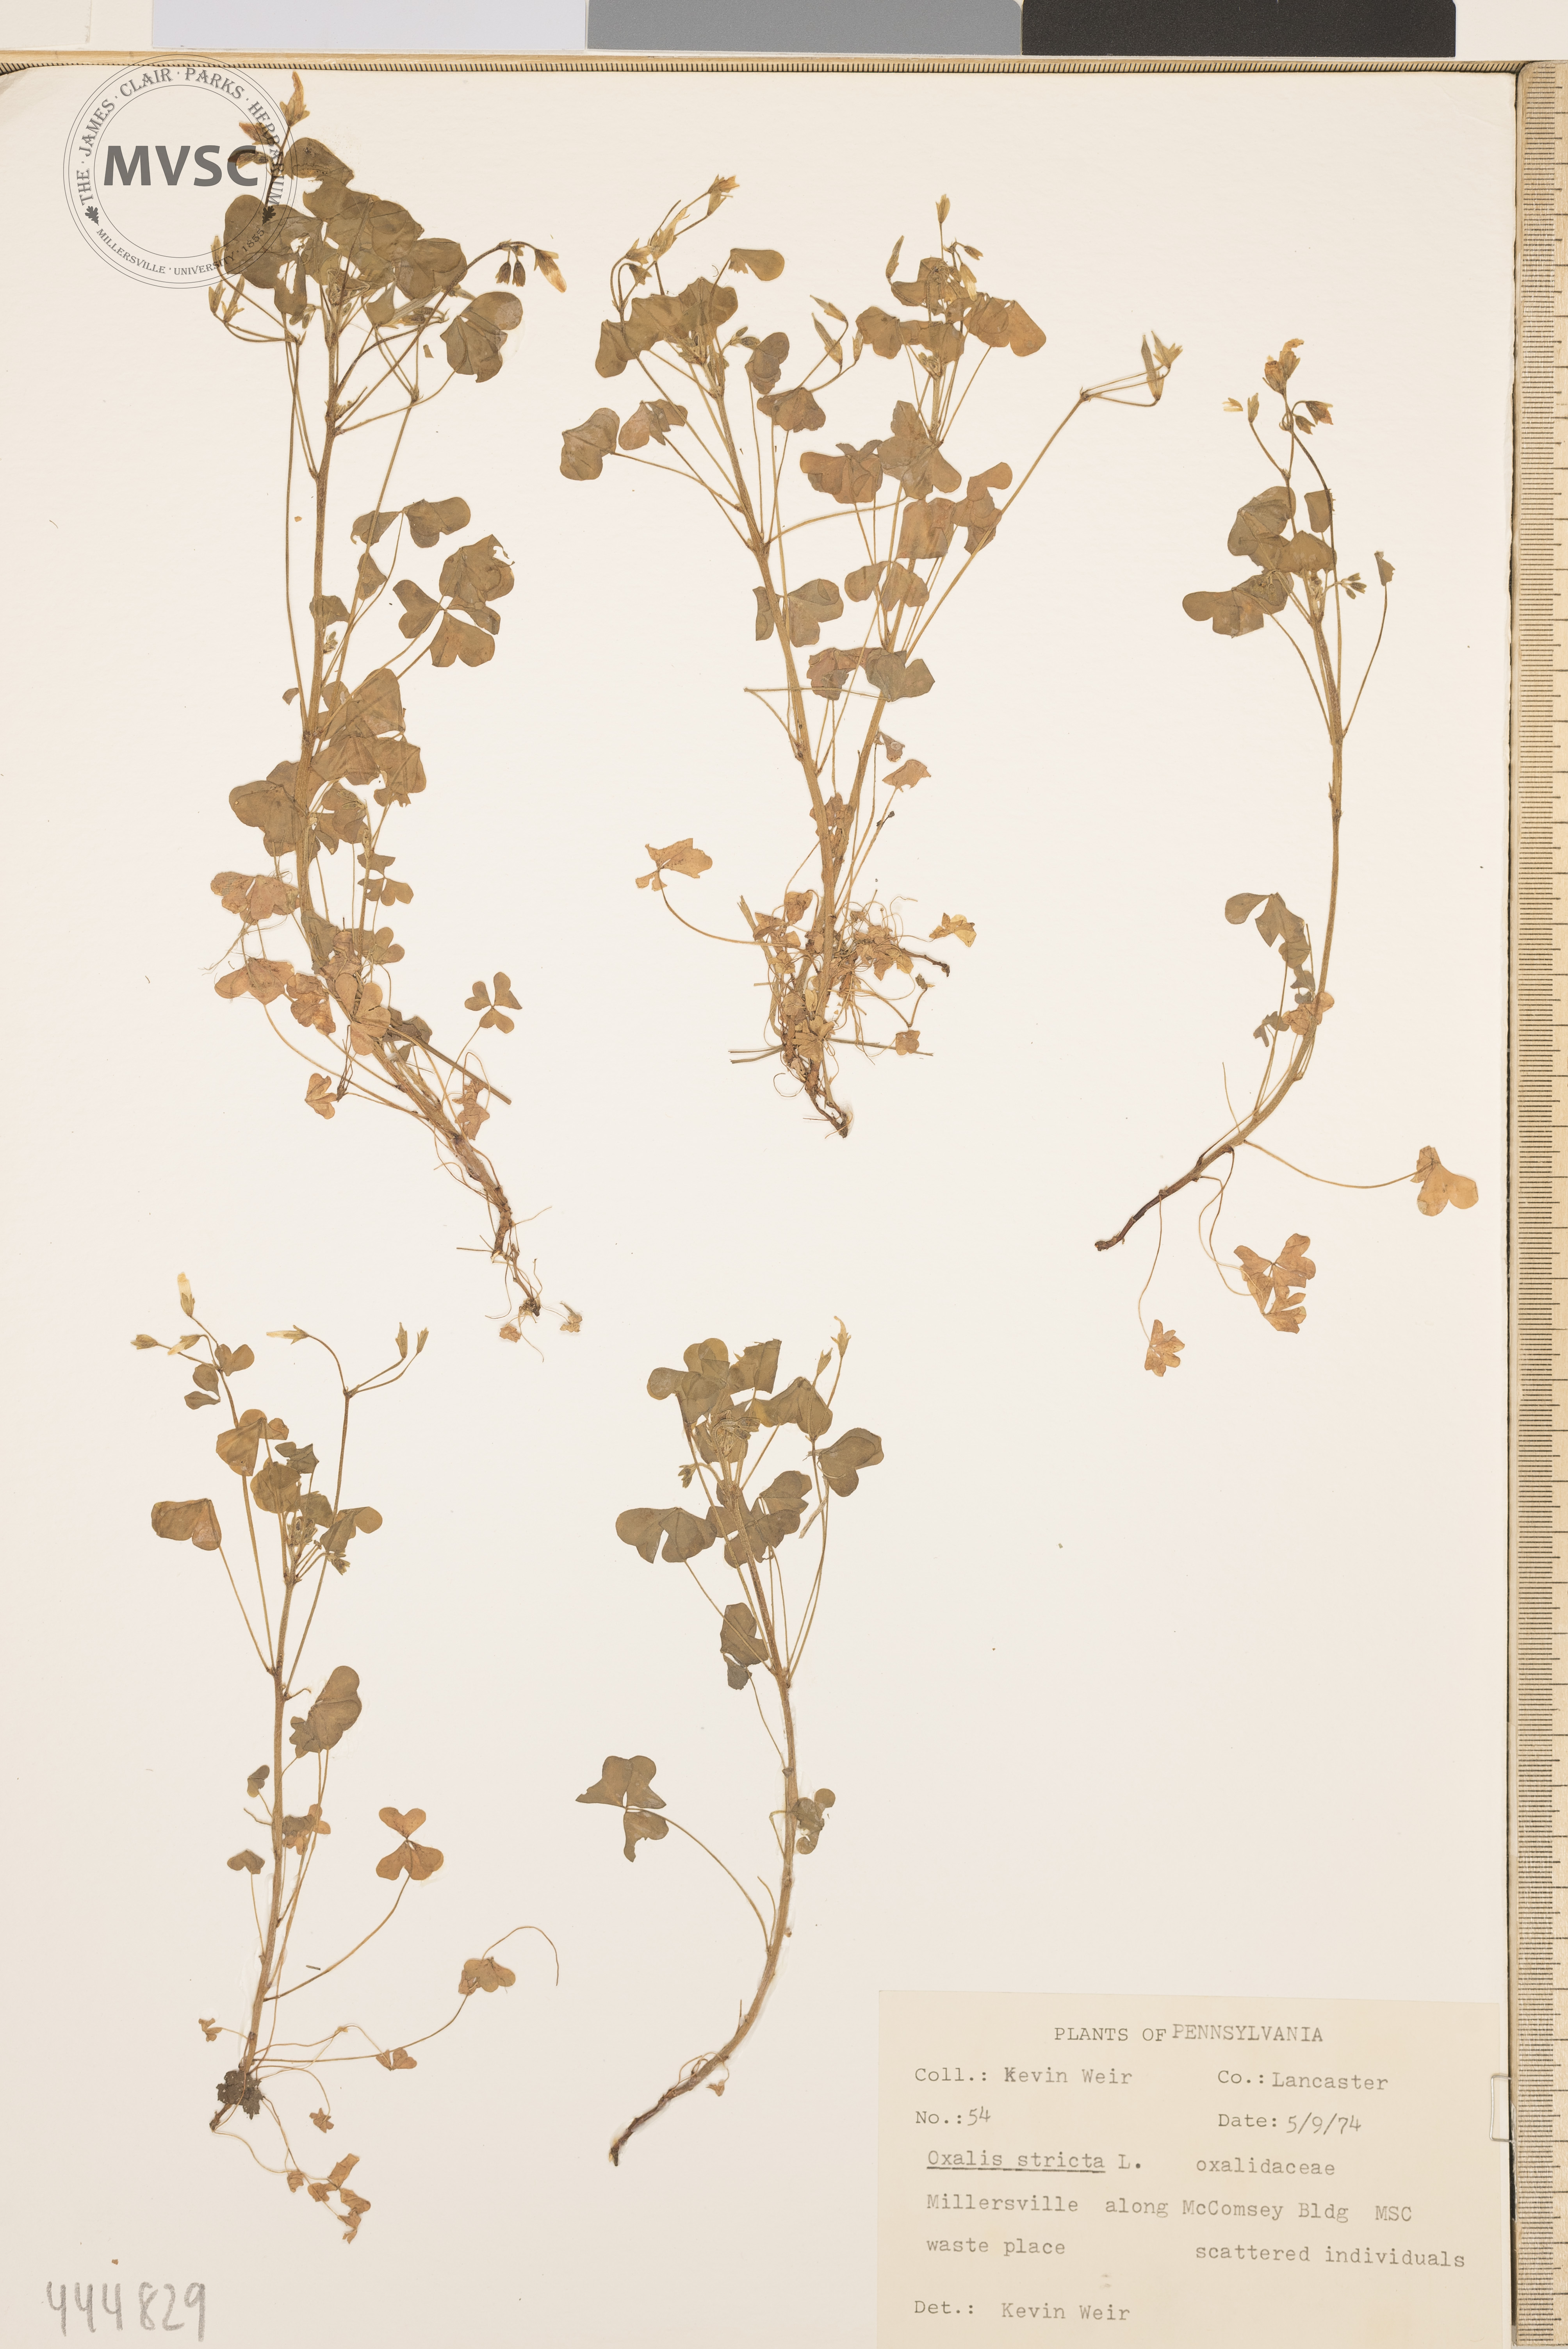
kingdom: Plantae
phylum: Tracheophyta
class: Magnoliopsida
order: Oxalidales
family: Oxalidaceae
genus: Oxalis
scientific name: Oxalis stricta
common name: Upright yellow-sorrel
